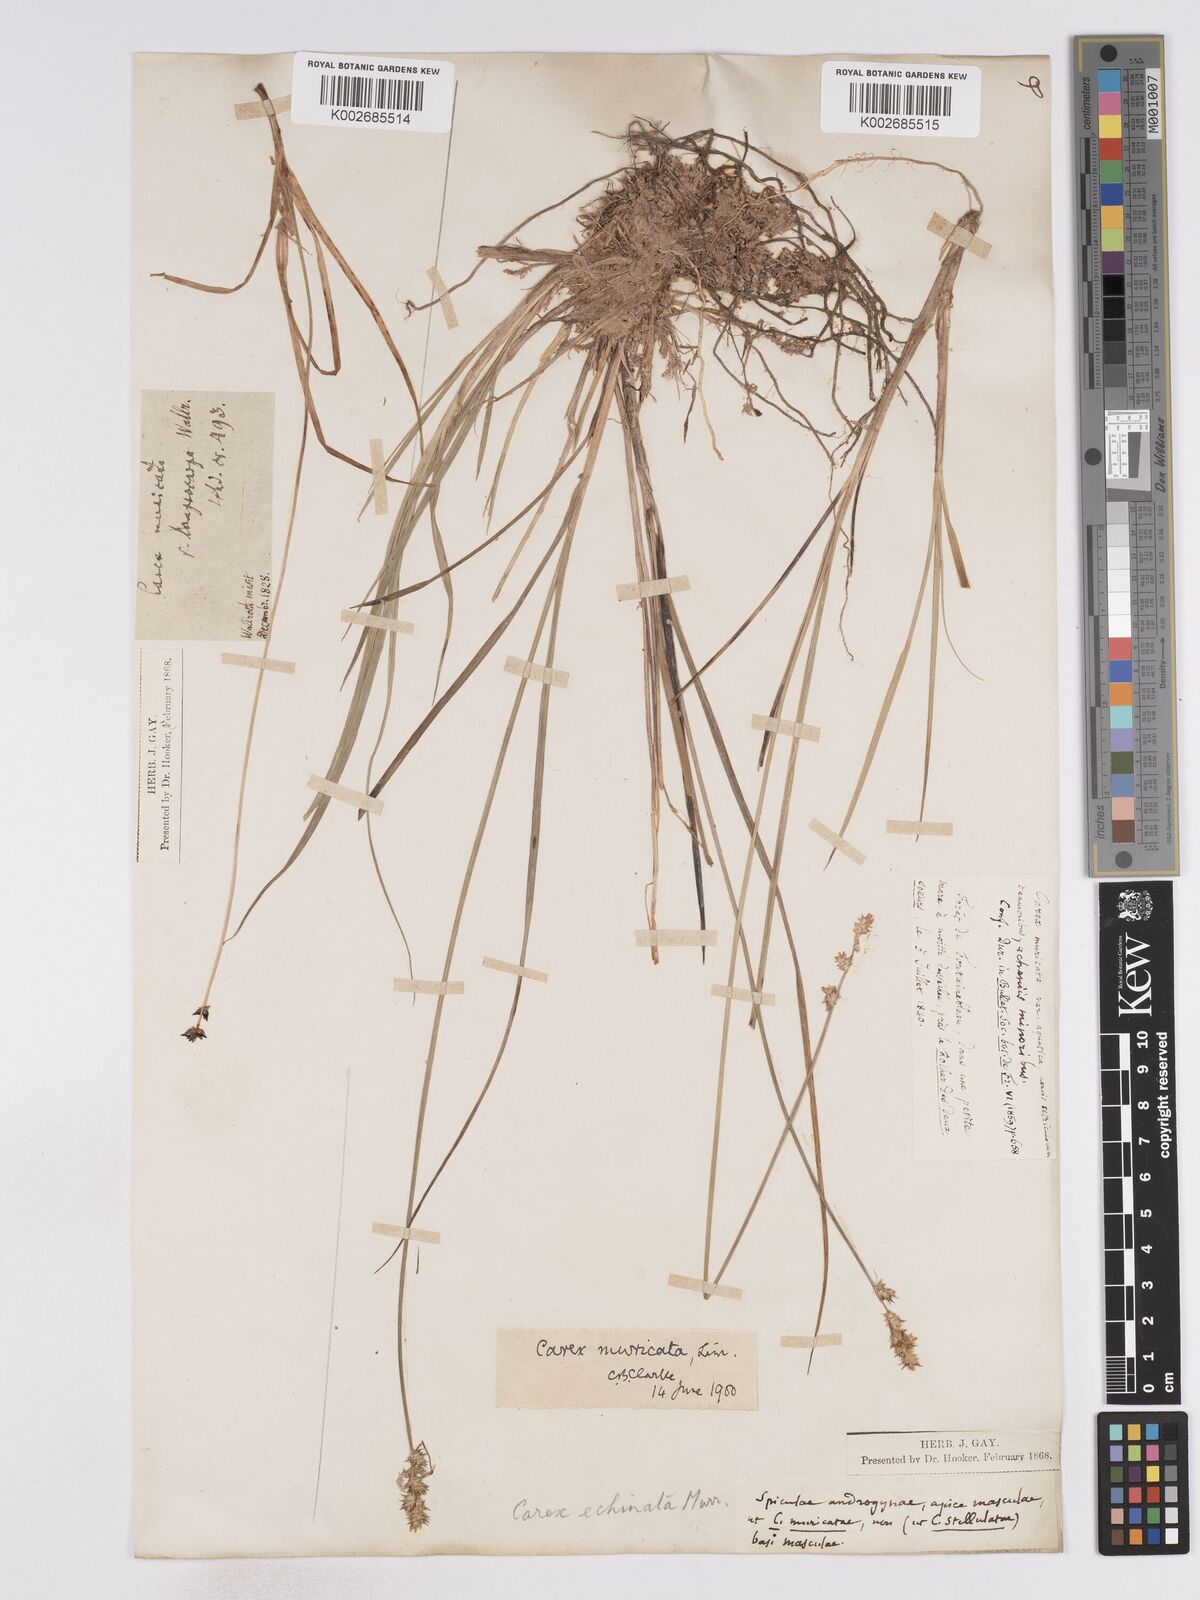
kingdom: Plantae
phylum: Tracheophyta
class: Liliopsida
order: Poales
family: Cyperaceae
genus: Carex
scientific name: Carex echinata
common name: Star sedge
